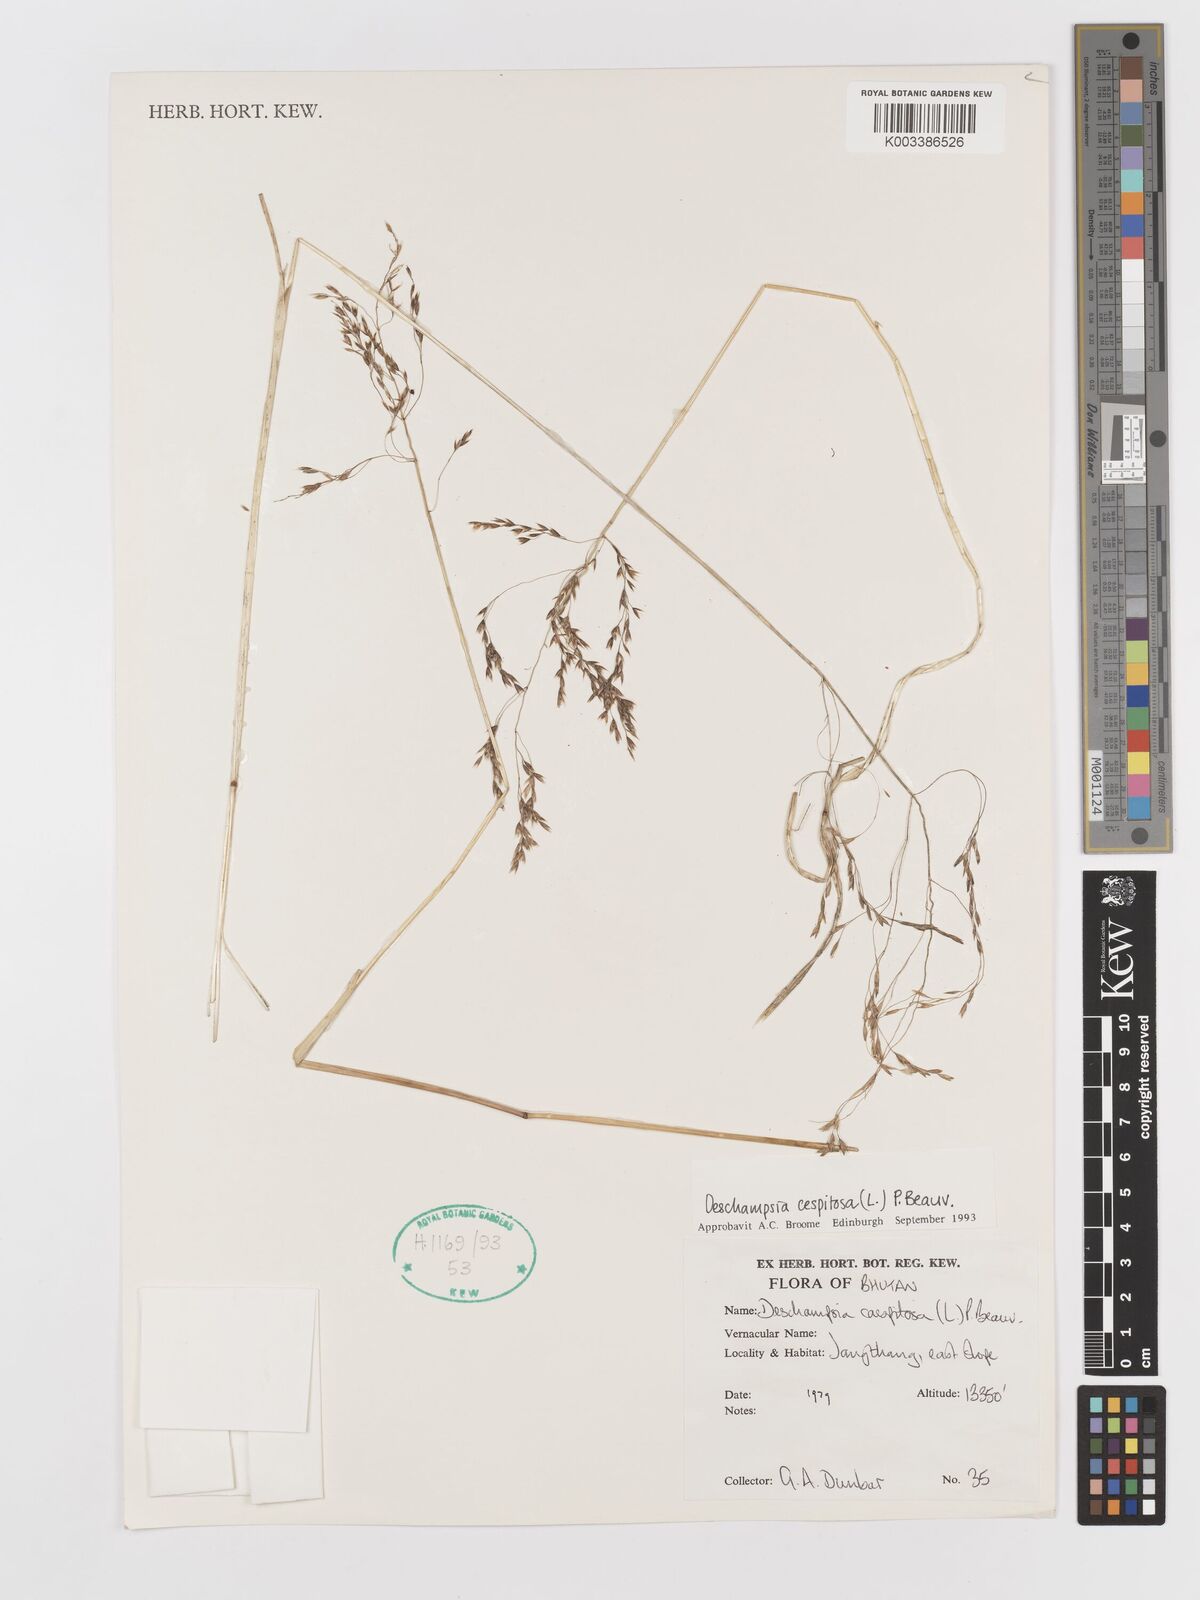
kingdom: Plantae
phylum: Tracheophyta
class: Liliopsida
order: Poales
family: Poaceae
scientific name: Poaceae
